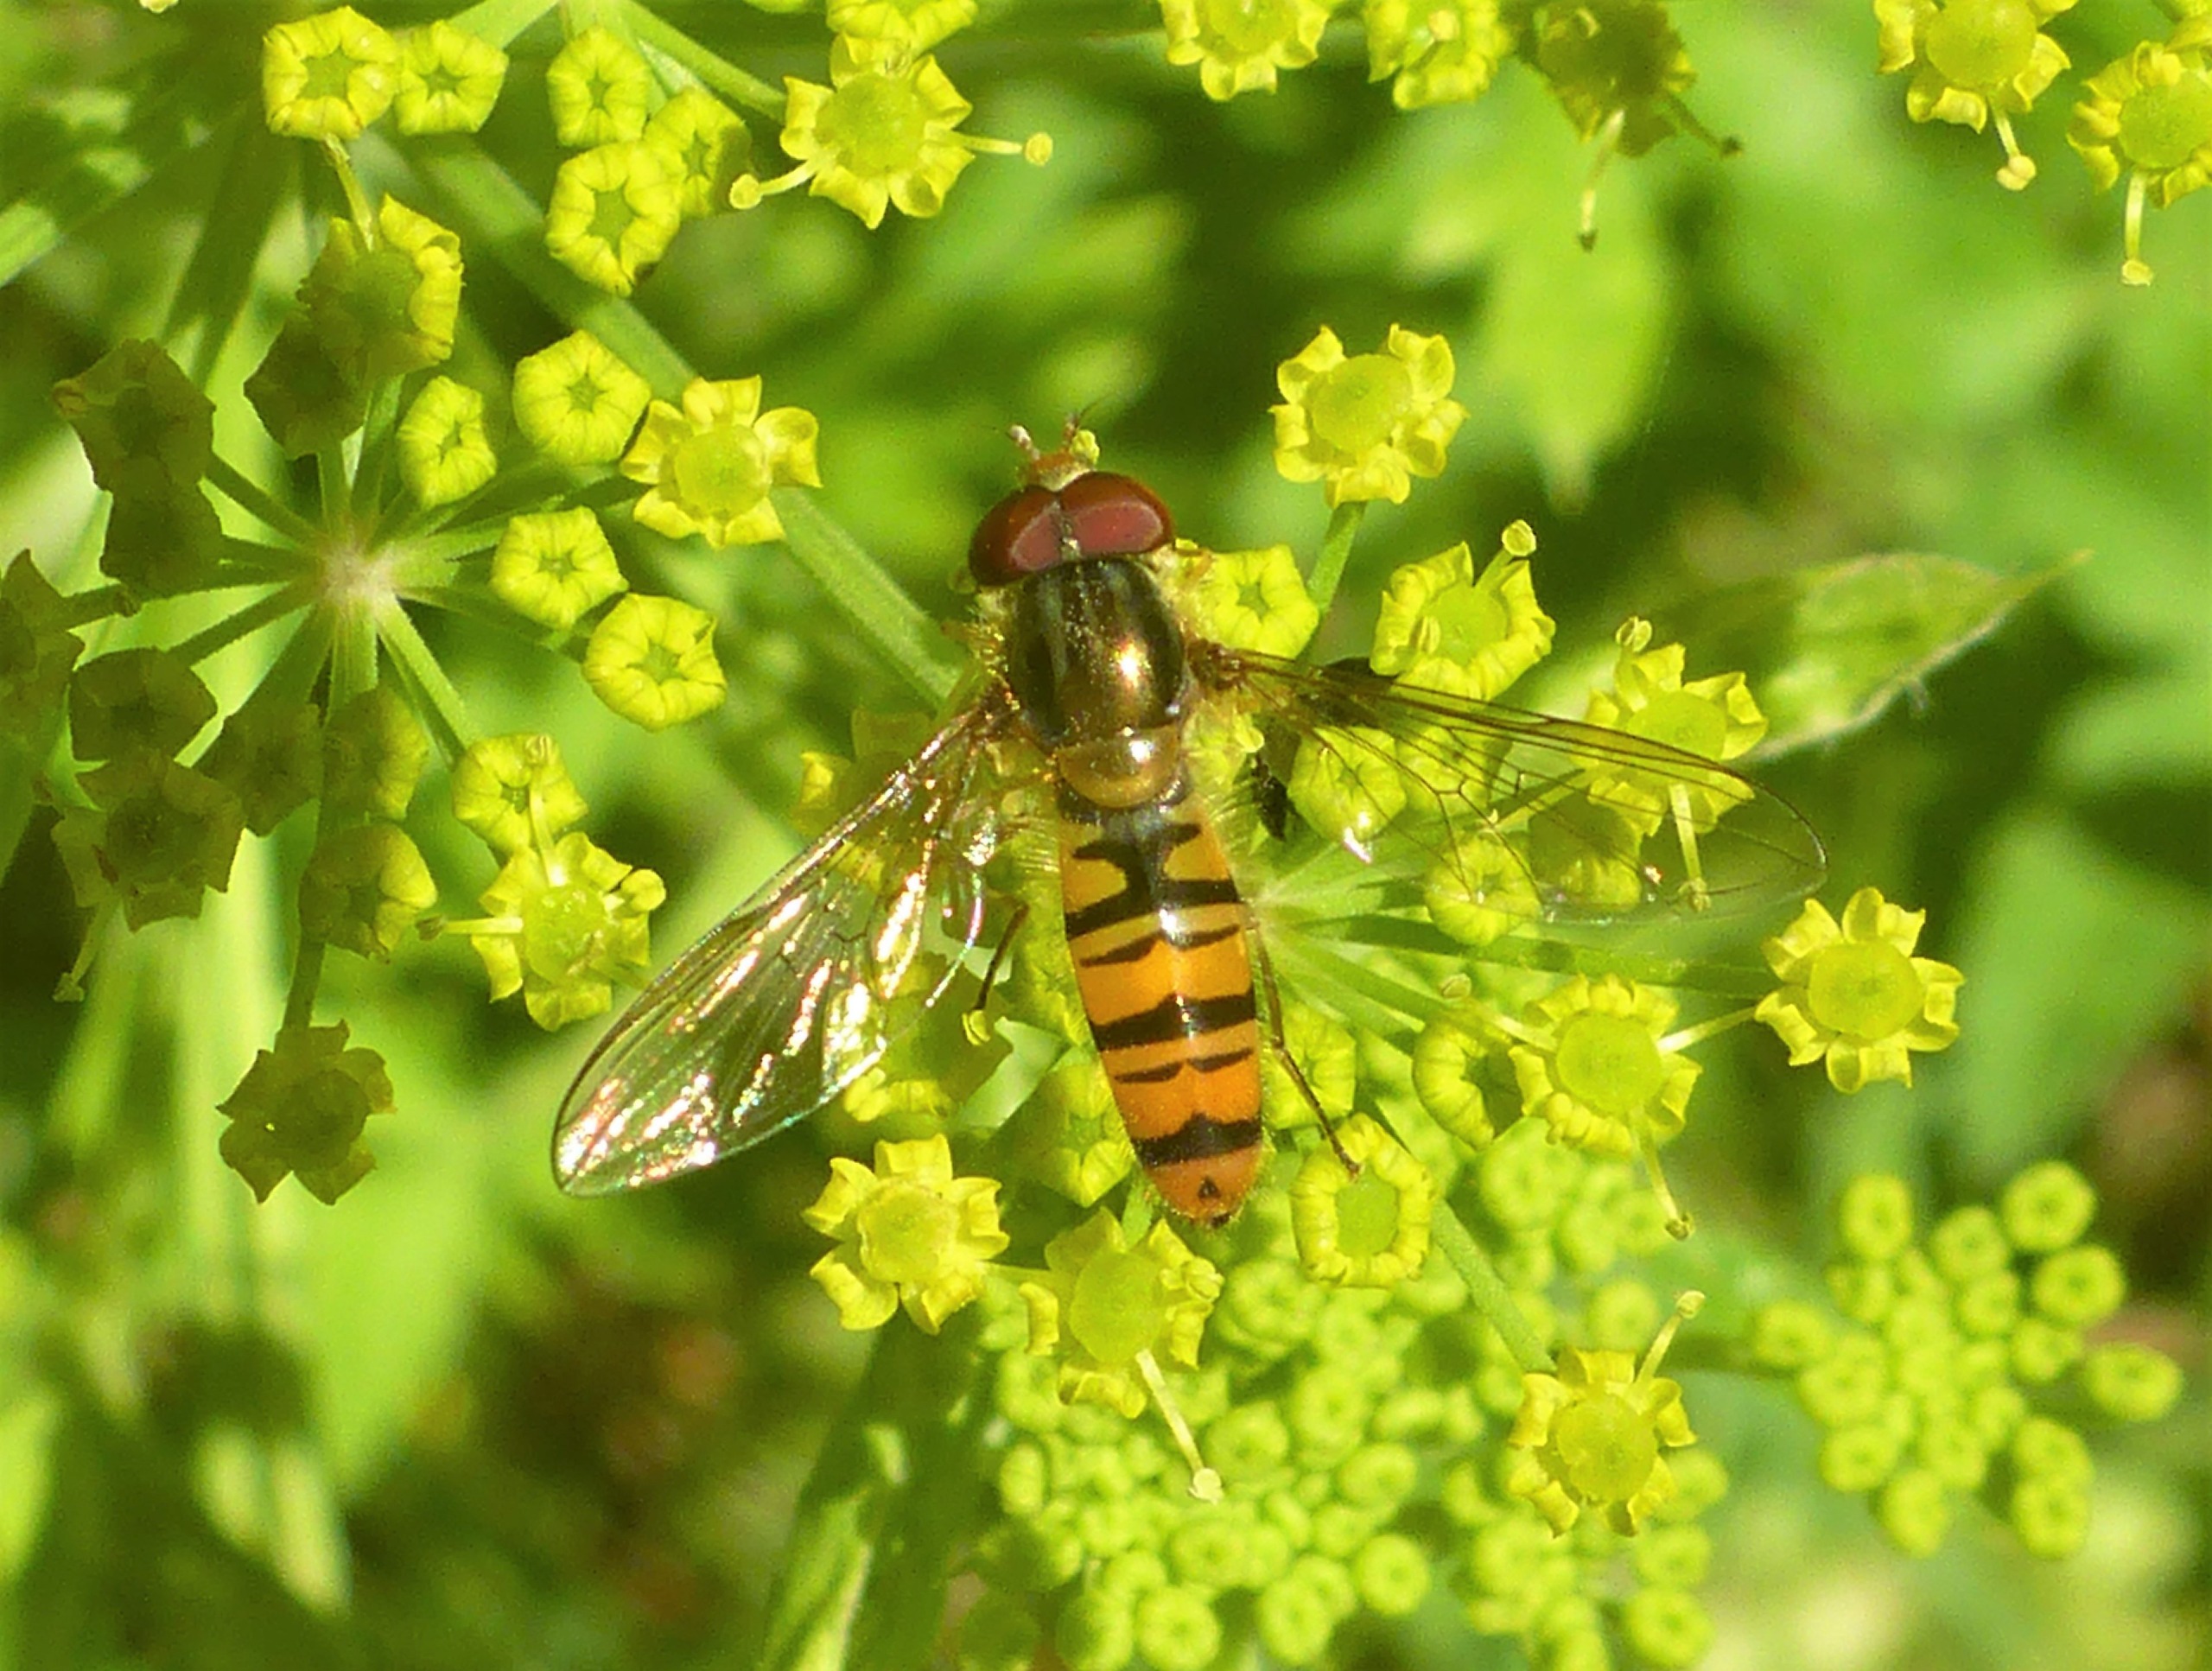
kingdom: Animalia
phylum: Arthropoda
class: Insecta
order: Diptera
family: Syrphidae
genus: Episyrphus
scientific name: Episyrphus balteatus
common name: Dobbeltbåndet svirreflue
